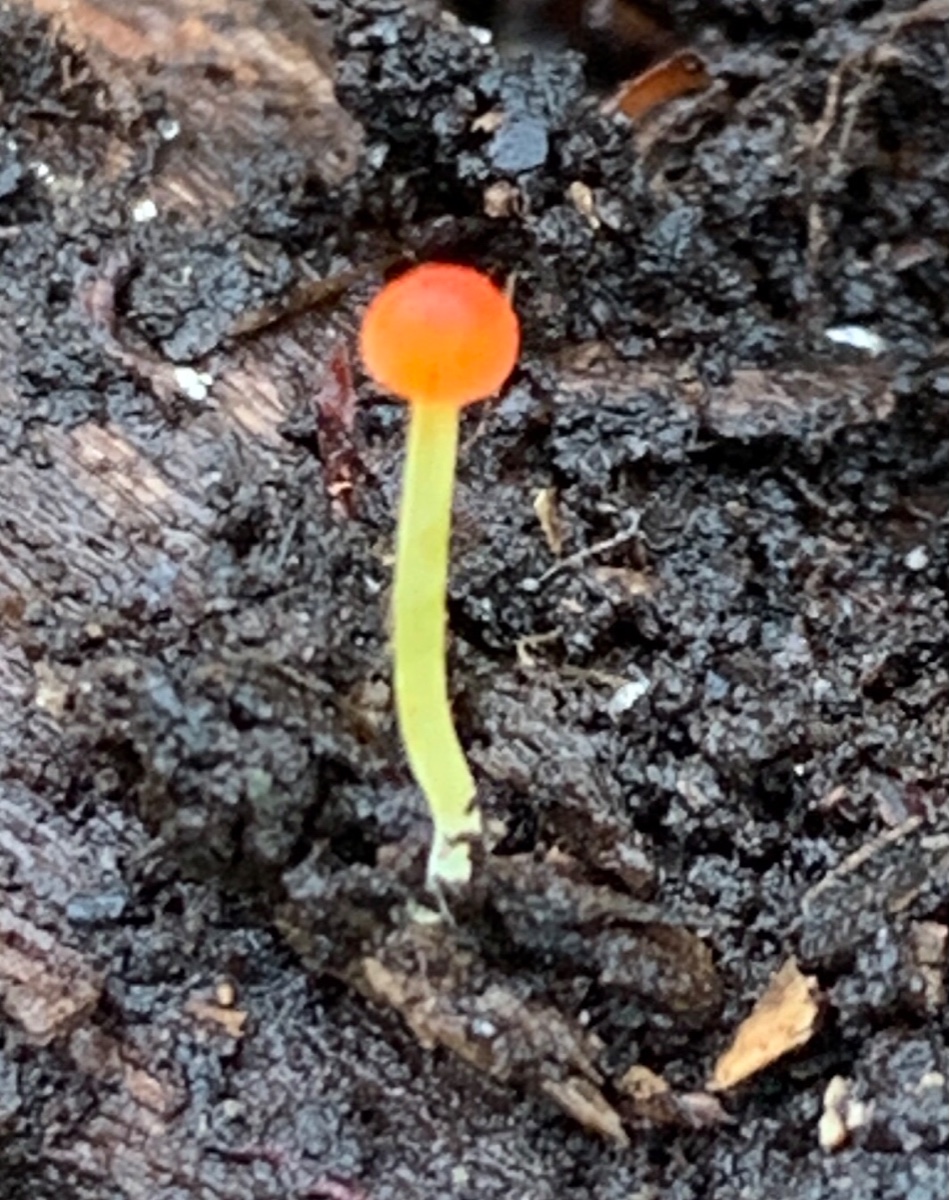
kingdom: Fungi
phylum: Basidiomycota
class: Agaricomycetes
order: Agaricales
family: Mycenaceae
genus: Mycena
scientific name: Mycena acicula
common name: orange huesvamp
